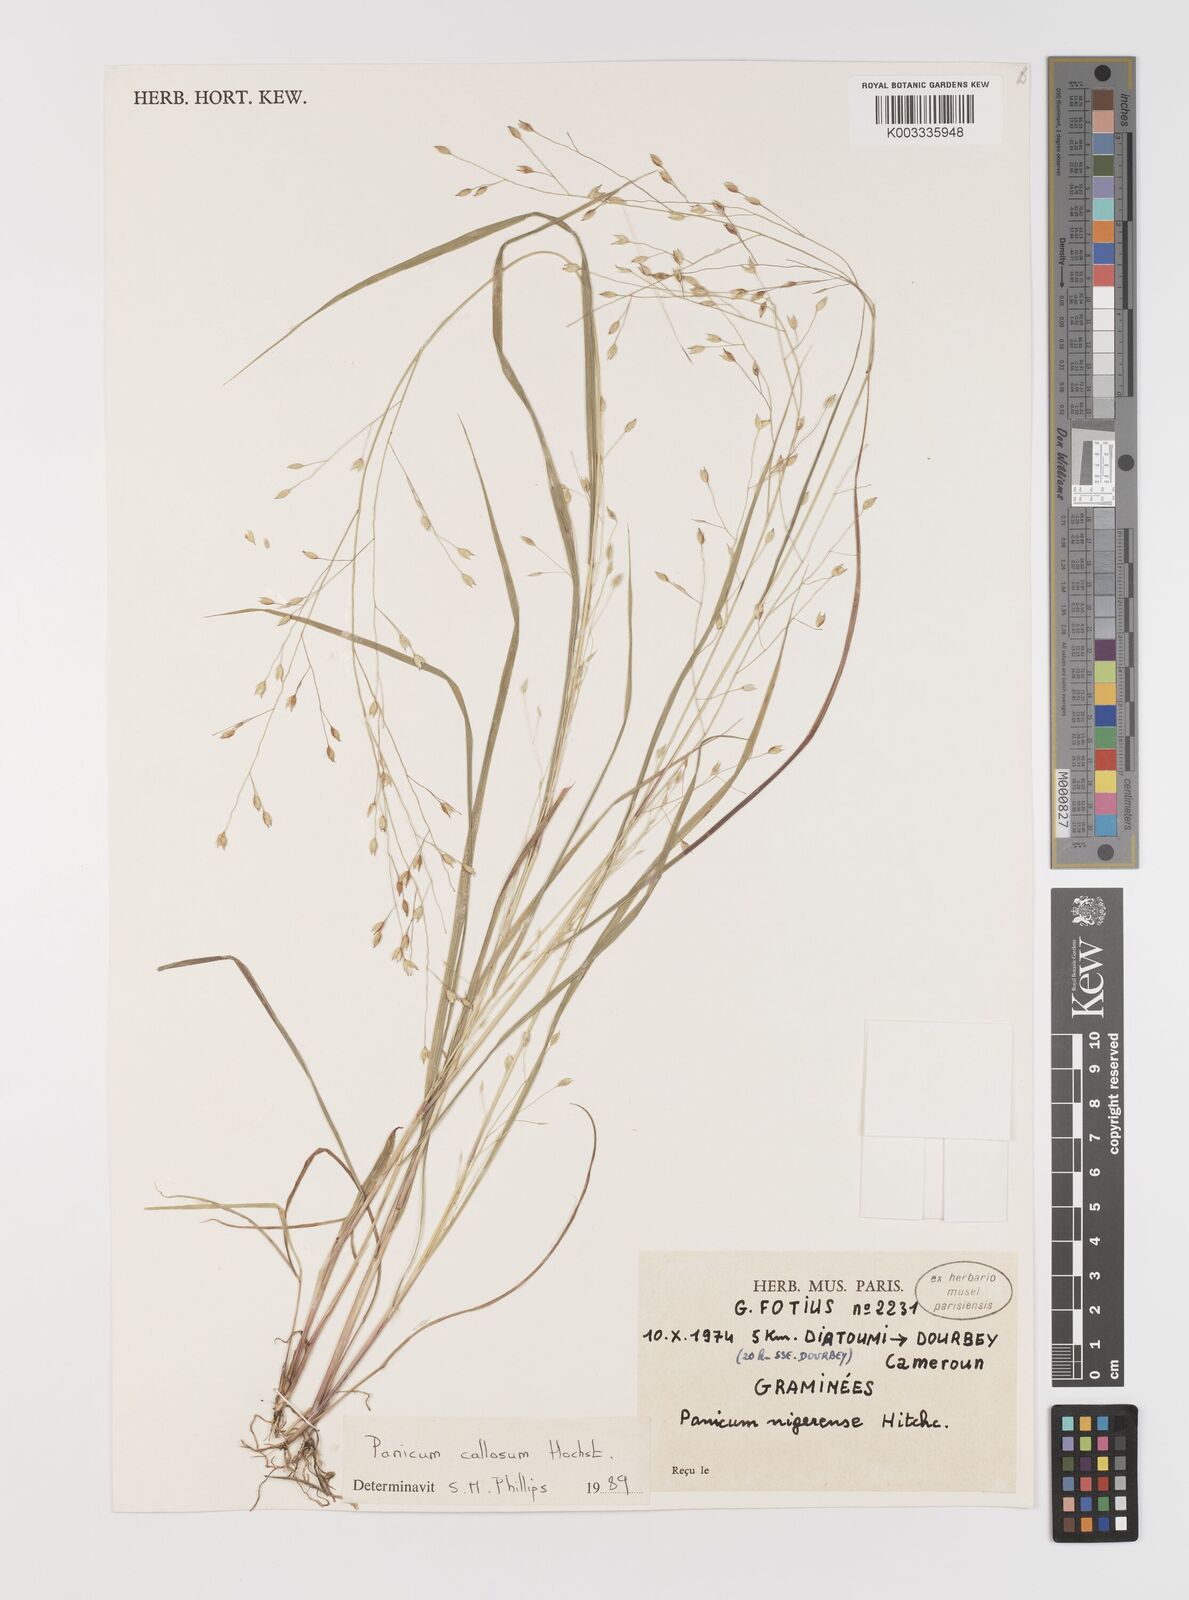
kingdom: Plantae
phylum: Tracheophyta
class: Liliopsida
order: Poales
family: Poaceae
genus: Panicum
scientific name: Panicum callosum
